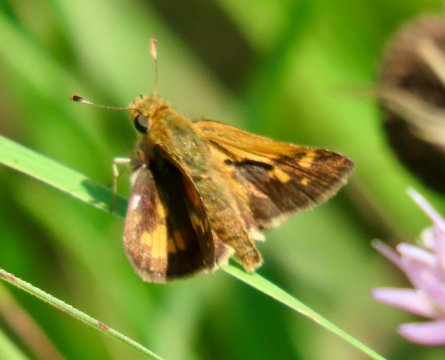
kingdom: Animalia
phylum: Arthropoda
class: Insecta
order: Lepidoptera
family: Hesperiidae
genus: Polites
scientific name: Polites coras
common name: Peck's Skipper
